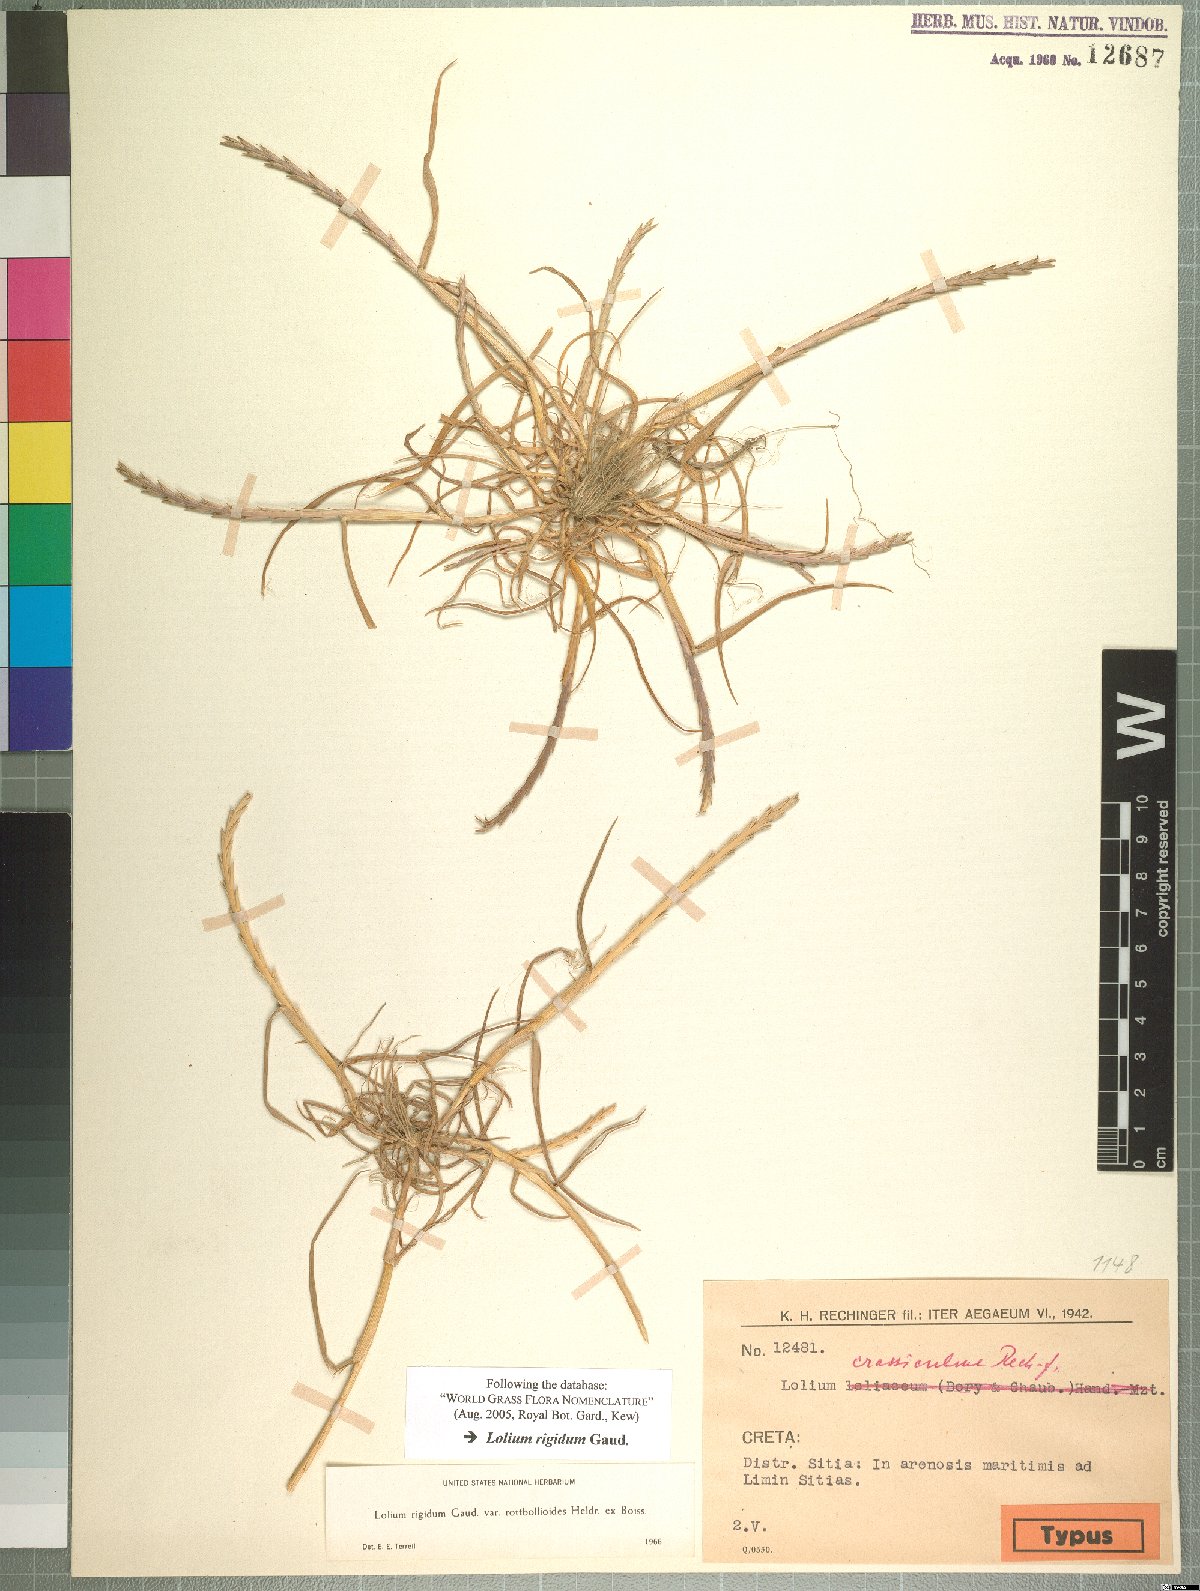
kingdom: Plantae
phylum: Tracheophyta
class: Liliopsida
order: Poales
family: Poaceae
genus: Lolium
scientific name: Lolium rigidum
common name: Wimmera ryegrass
